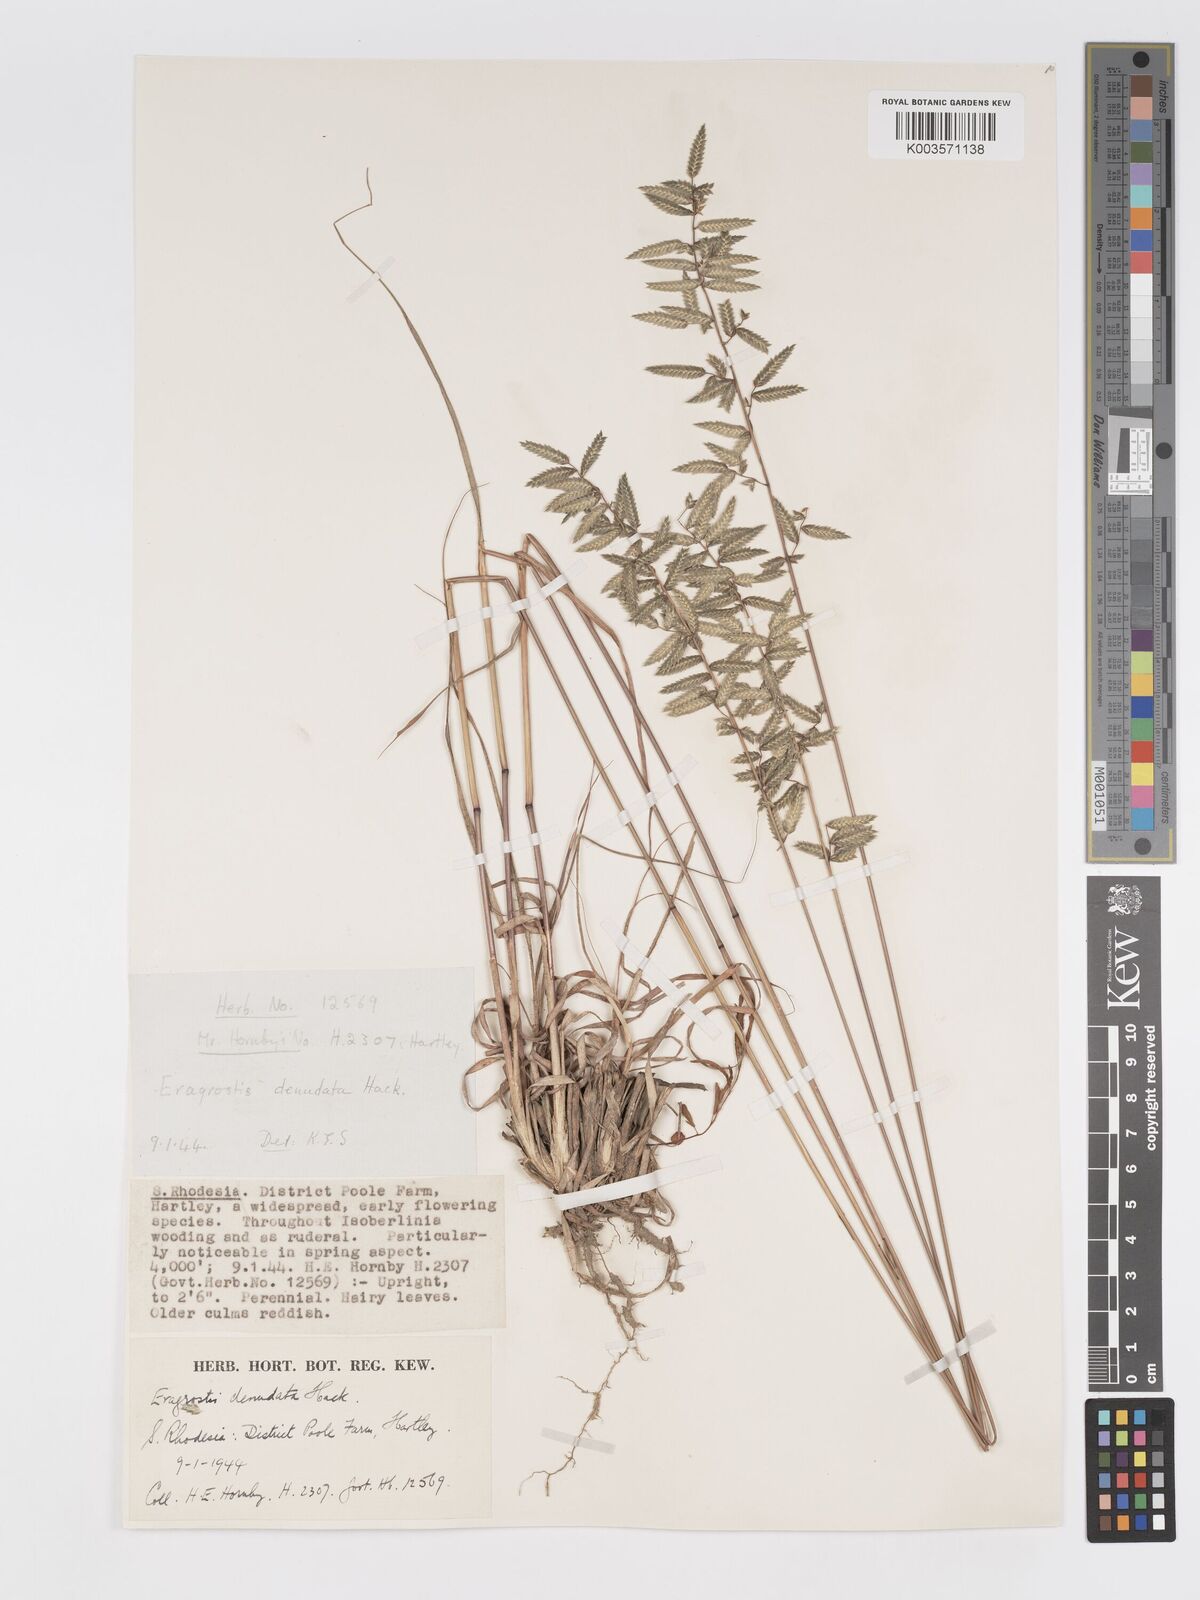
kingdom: Plantae
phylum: Tracheophyta
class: Liliopsida
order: Poales
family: Poaceae
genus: Eragrostis
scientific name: Eragrostis nindensis
